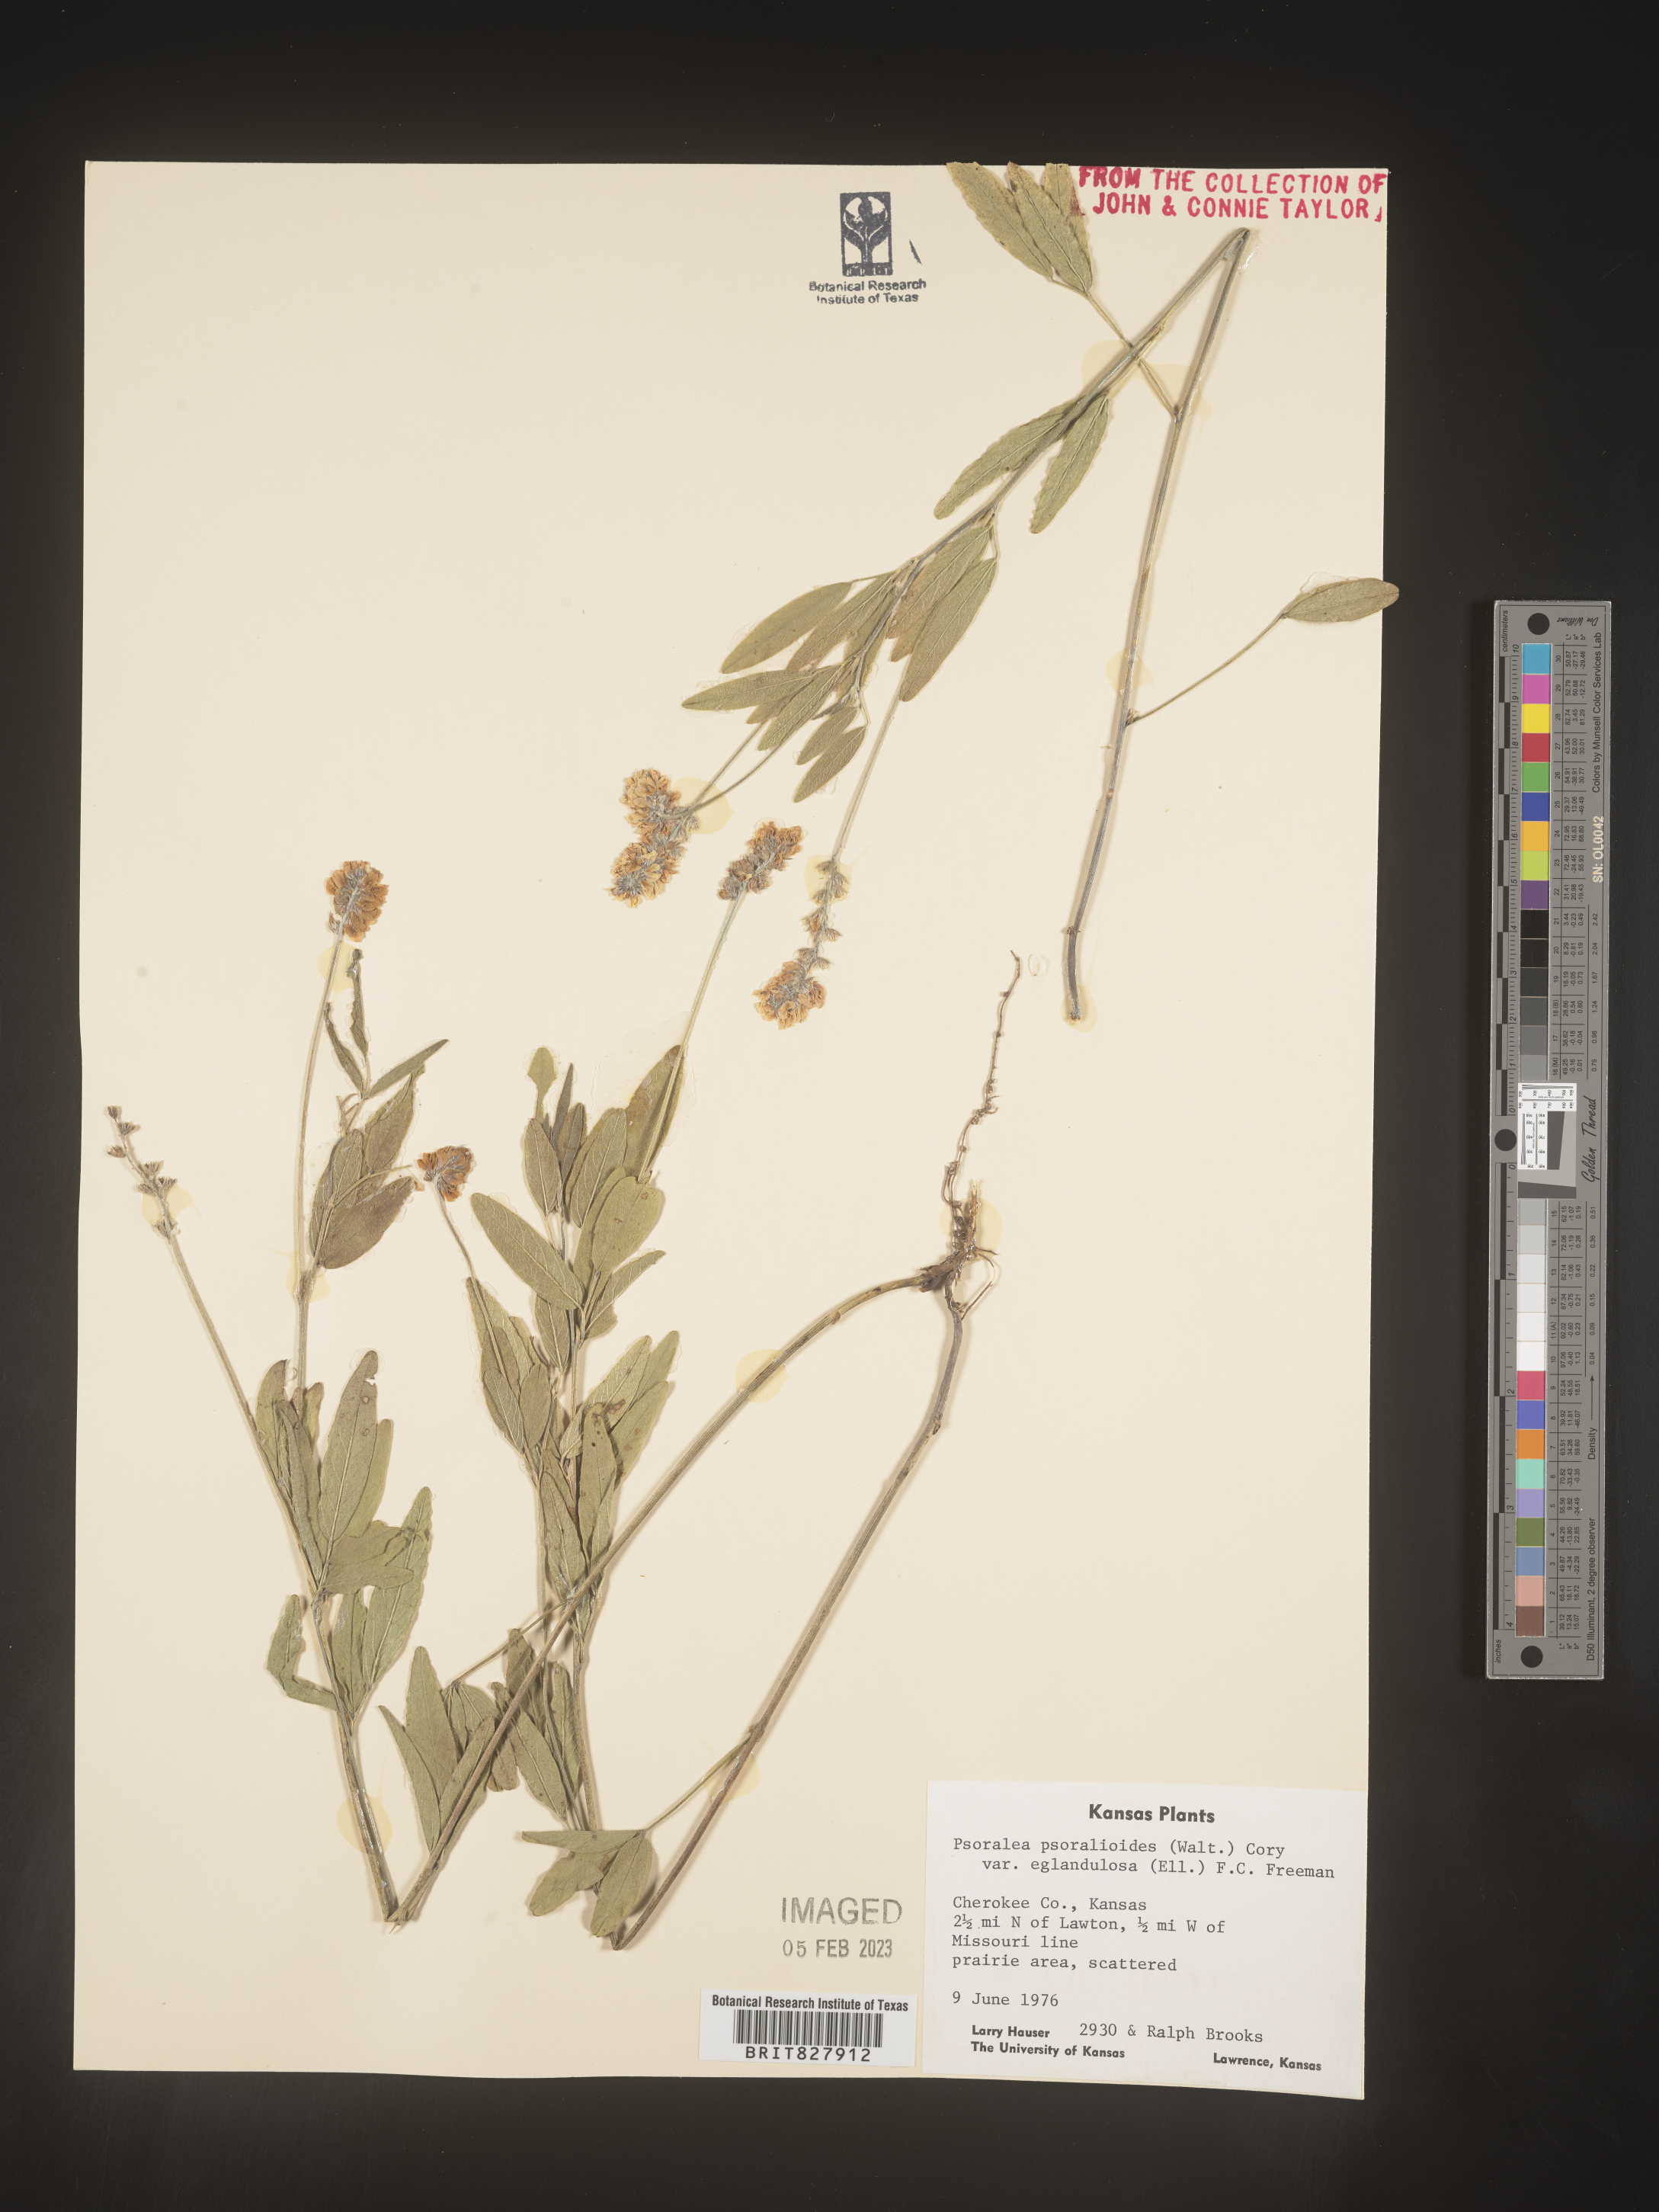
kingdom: Plantae
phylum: Tracheophyta
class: Magnoliopsida
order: Fabales
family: Fabaceae
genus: Orbexilum
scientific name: Orbexilum pedunculatum
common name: Sampson's snakeroot
